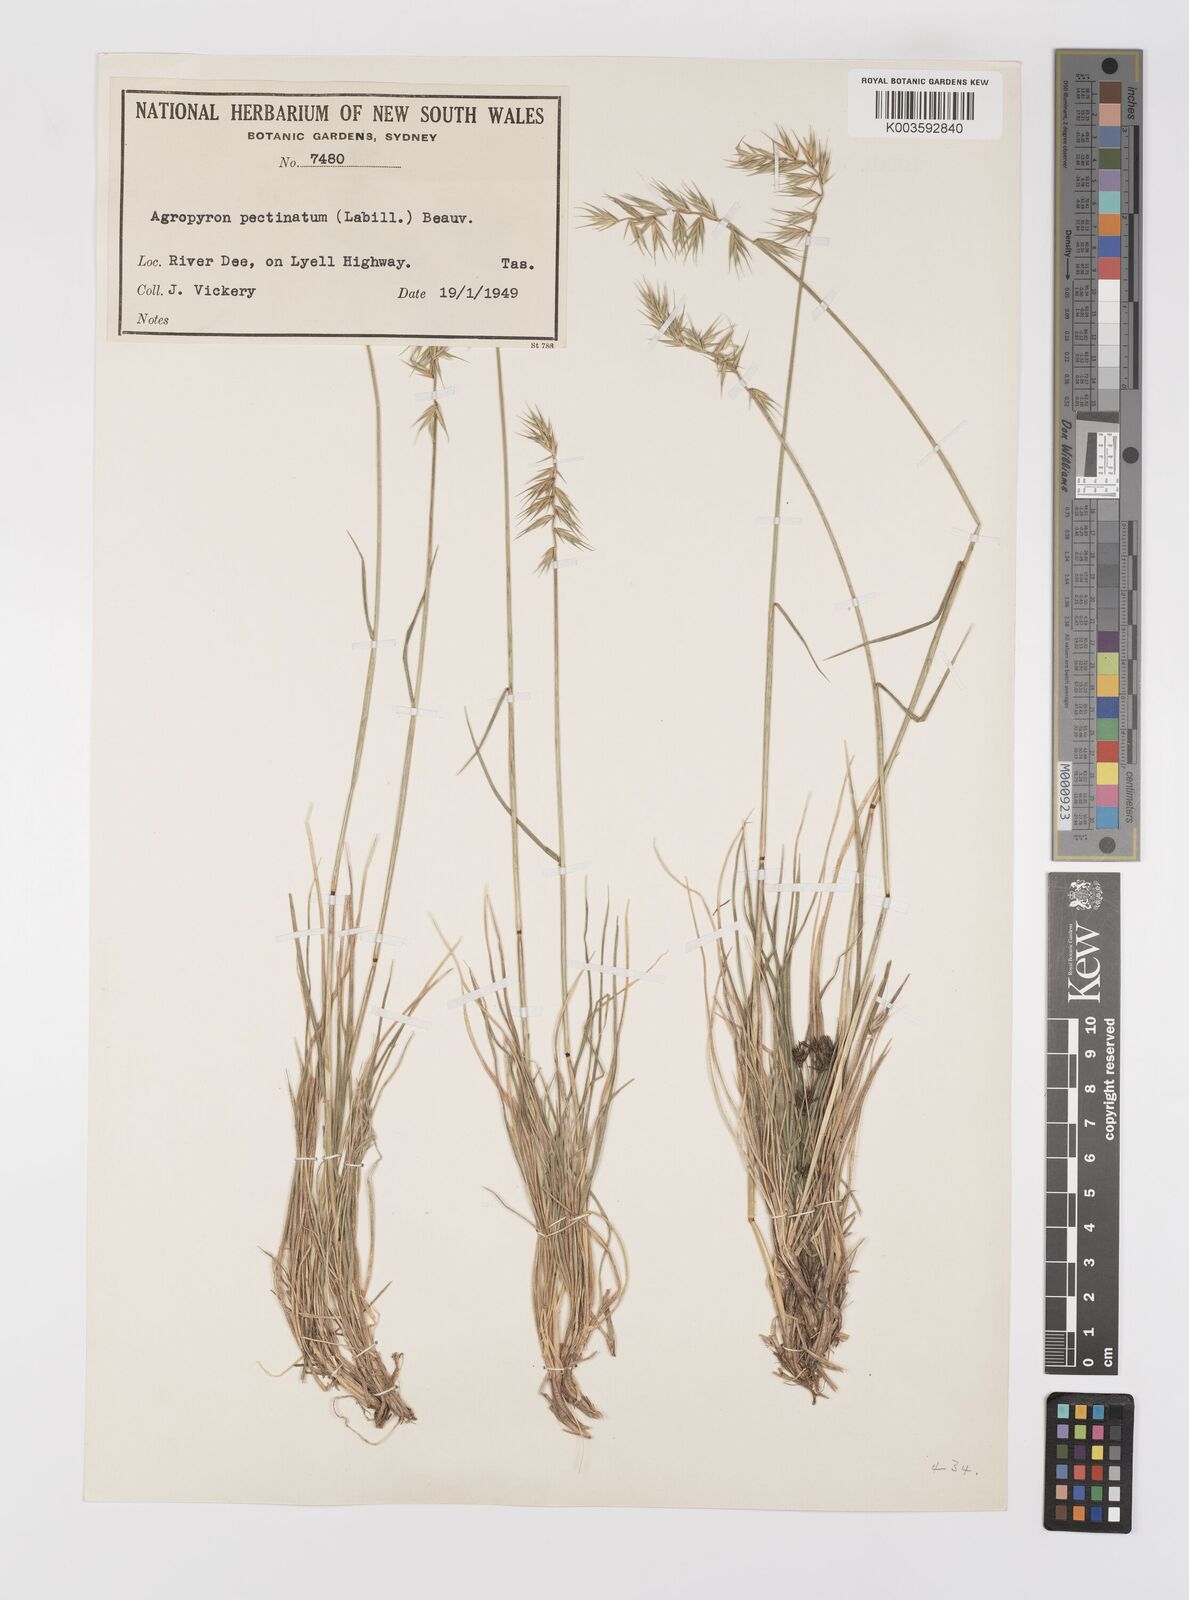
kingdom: Plantae
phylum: Tracheophyta
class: Liliopsida
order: Poales
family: Poaceae
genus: Australopyrum
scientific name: Australopyrum pectinatum
